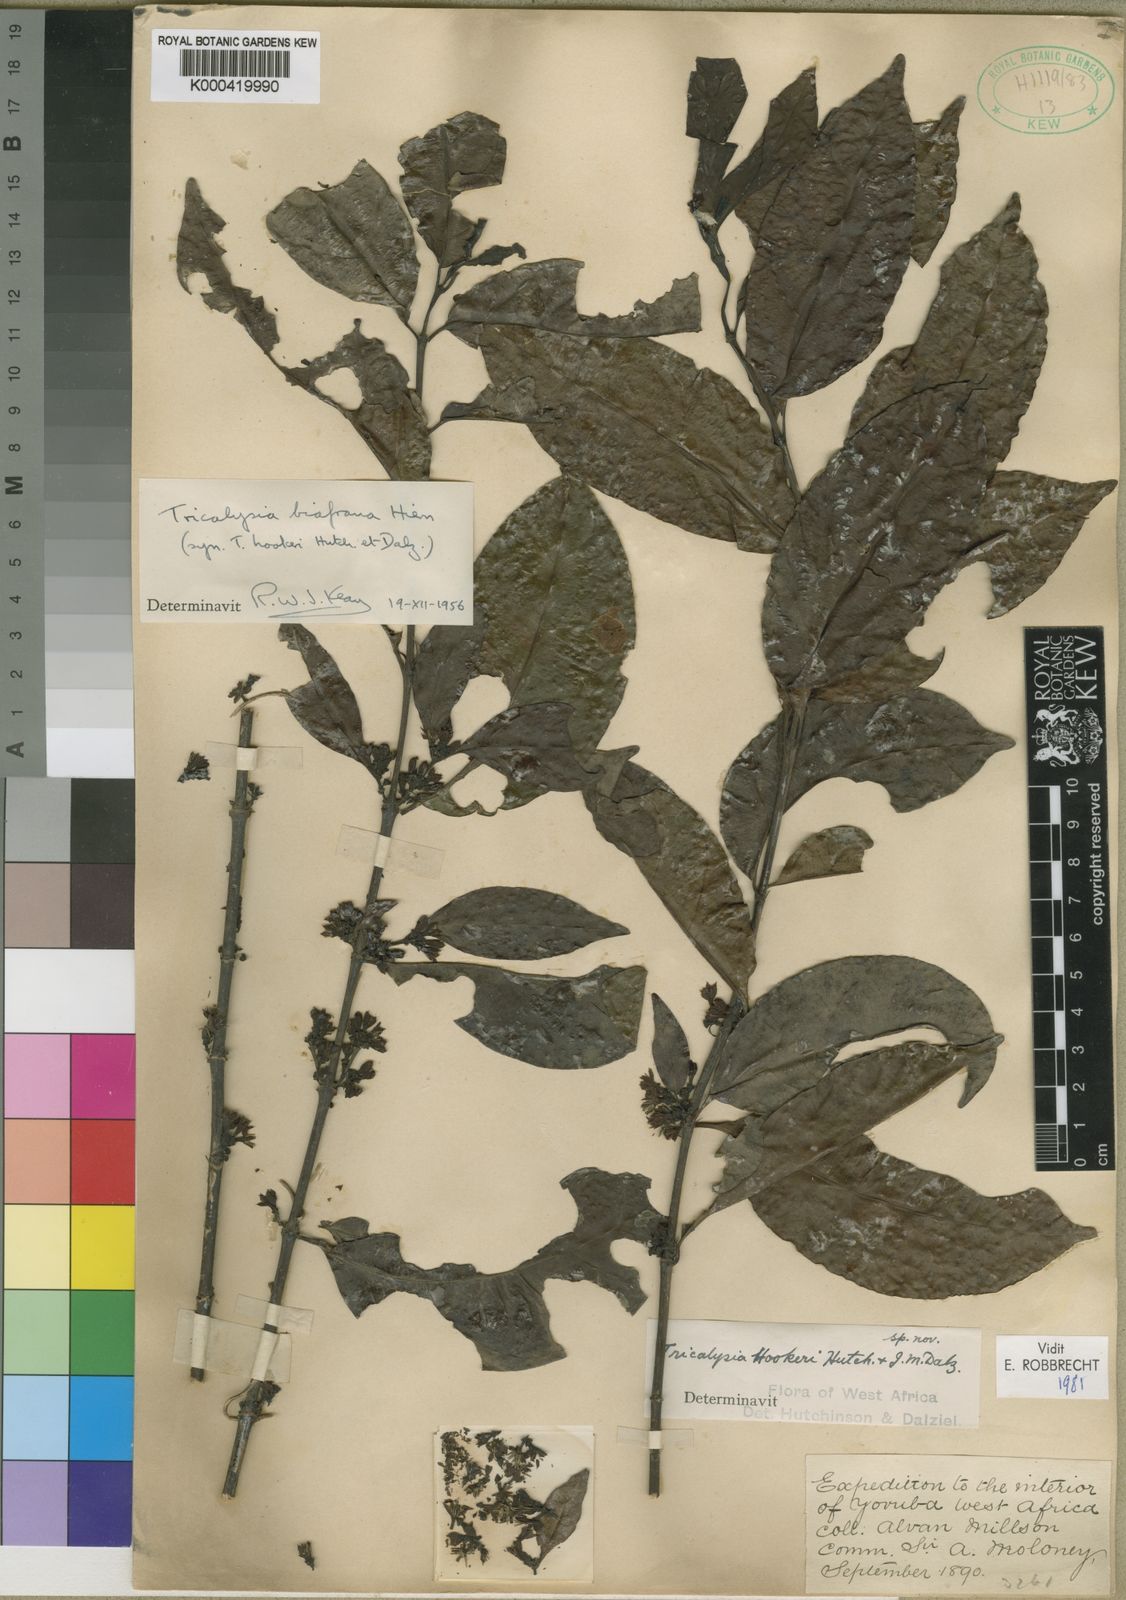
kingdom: Plantae
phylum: Tracheophyta
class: Magnoliopsida
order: Gentianales
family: Rubiaceae
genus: Tricalysia
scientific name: Tricalysia biafrana
